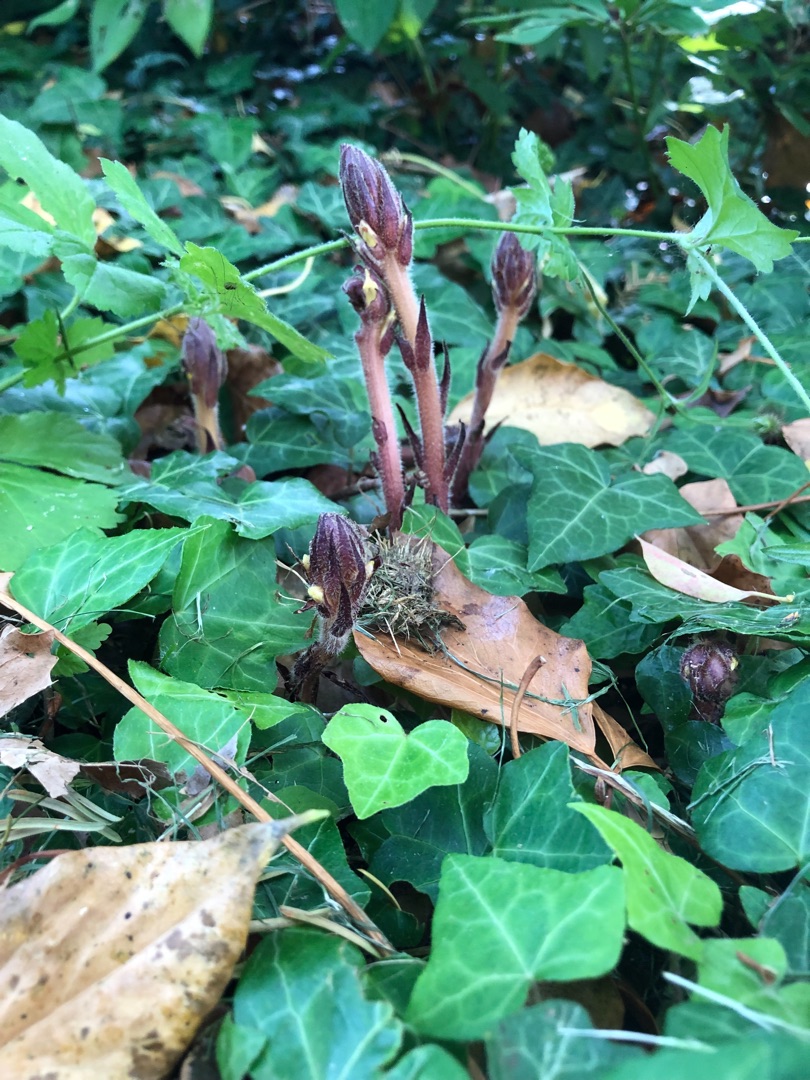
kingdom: Plantae
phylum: Tracheophyta
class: Magnoliopsida
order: Lamiales
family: Orobanchaceae
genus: Orobanche
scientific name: Orobanche hederae
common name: Vedbend-gyvelkvæler
